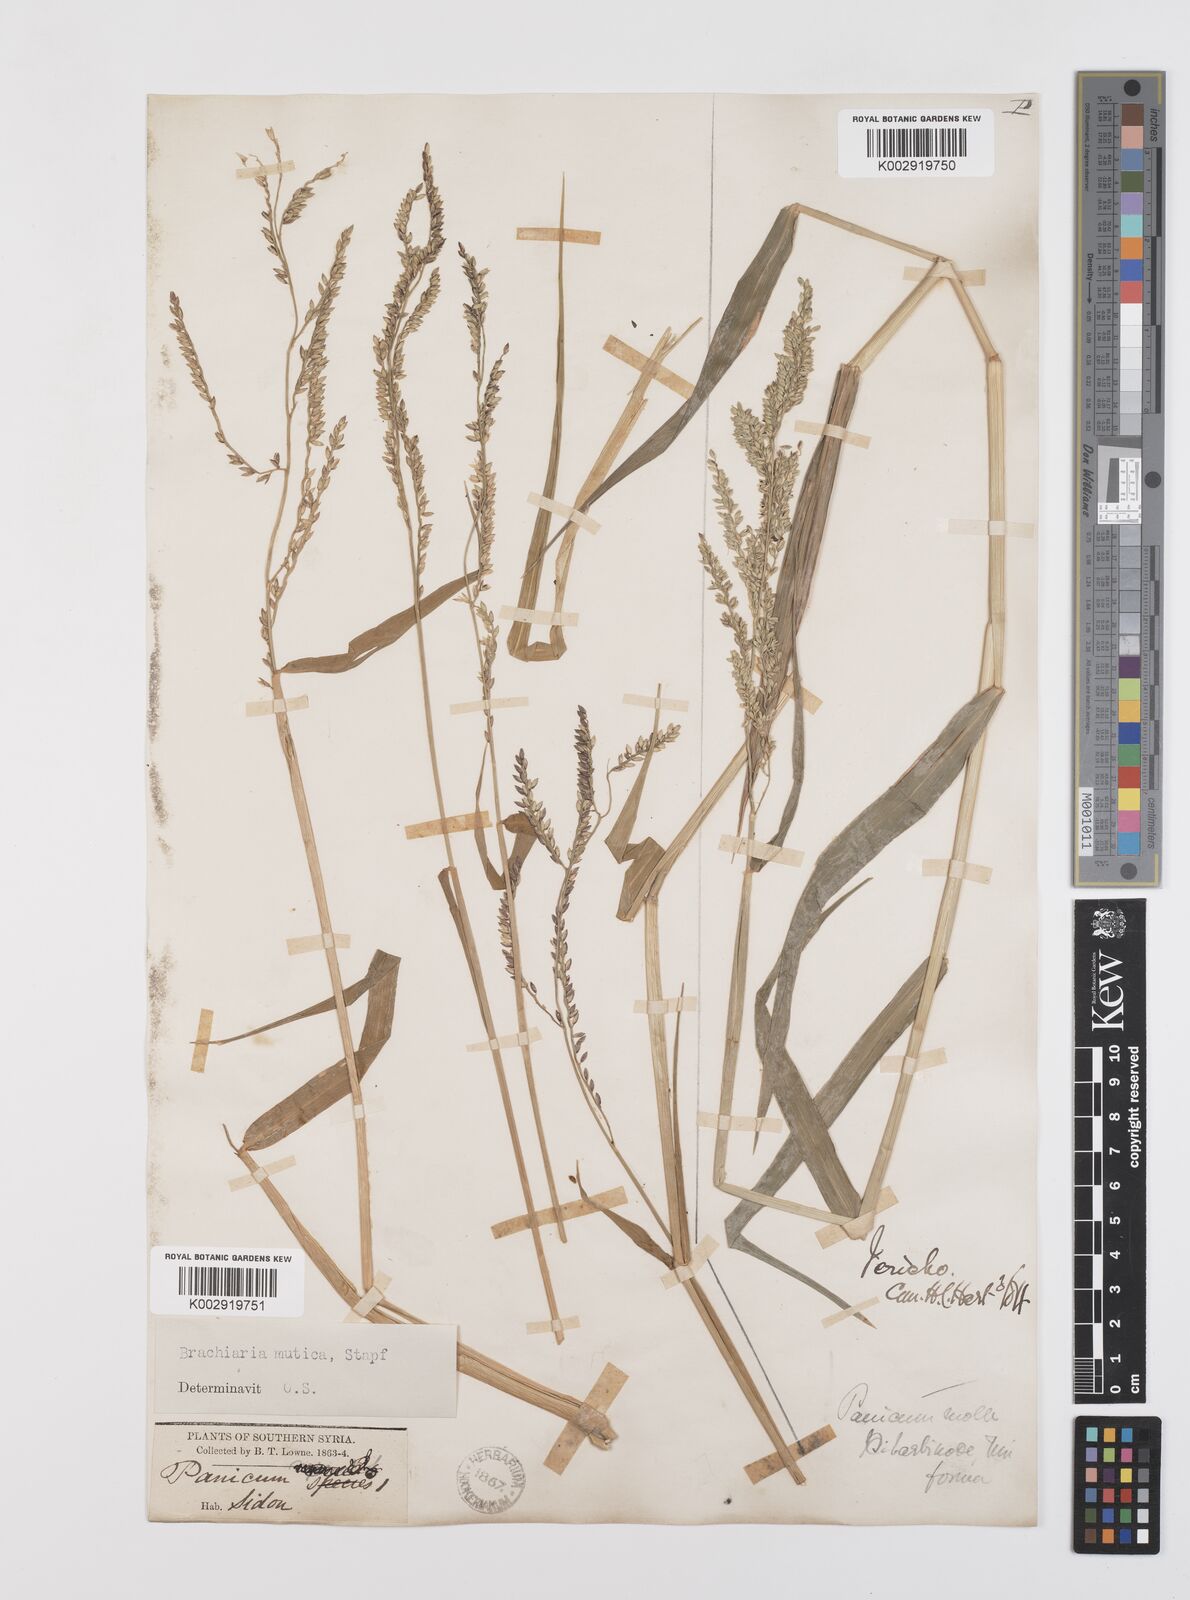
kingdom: Plantae
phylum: Tracheophyta
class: Liliopsida
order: Poales
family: Poaceae
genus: Urochloa
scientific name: Urochloa mutica
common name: Para grass
